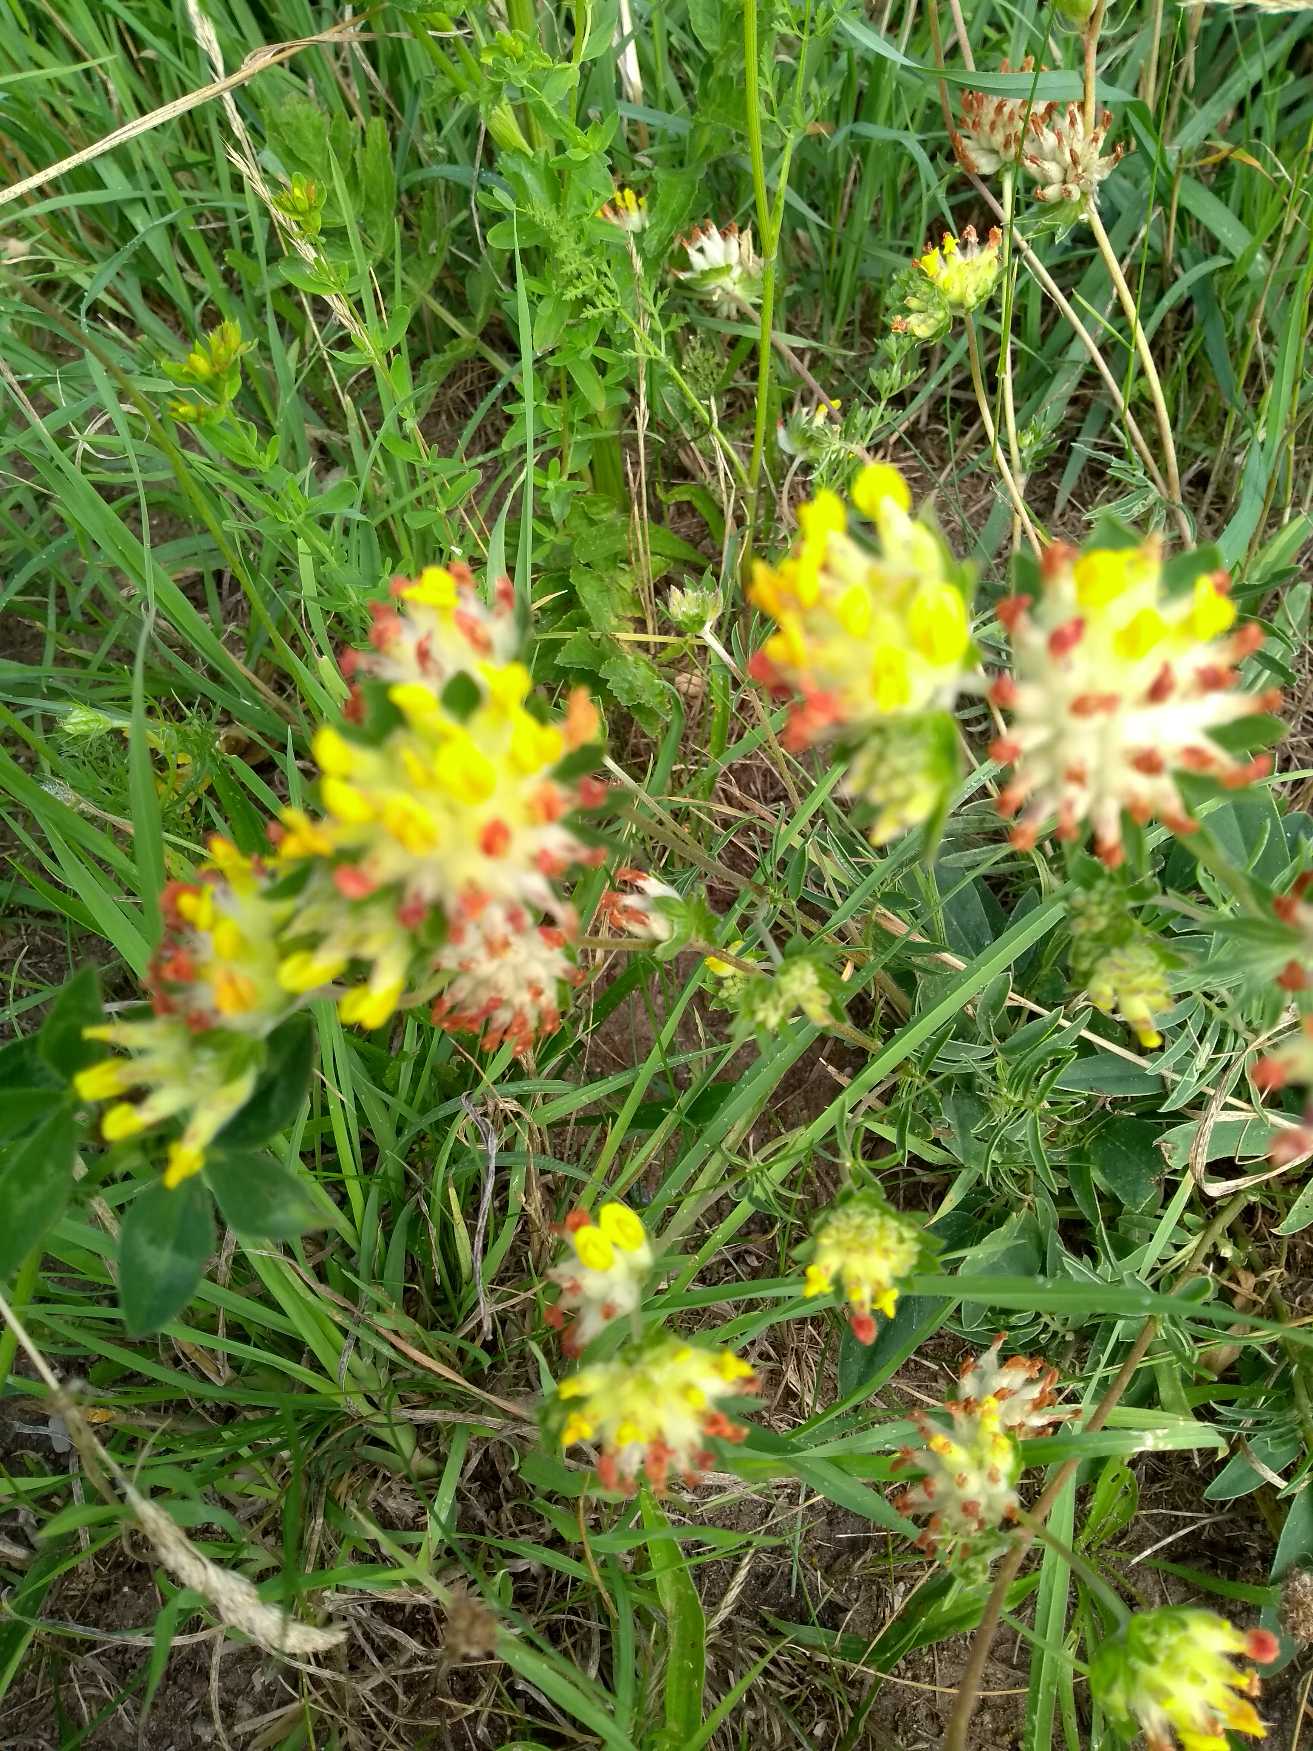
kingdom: Plantae
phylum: Tracheophyta
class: Magnoliopsida
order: Fabales
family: Fabaceae
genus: Anthyllis
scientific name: Anthyllis vulneraria
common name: Rundbælg
